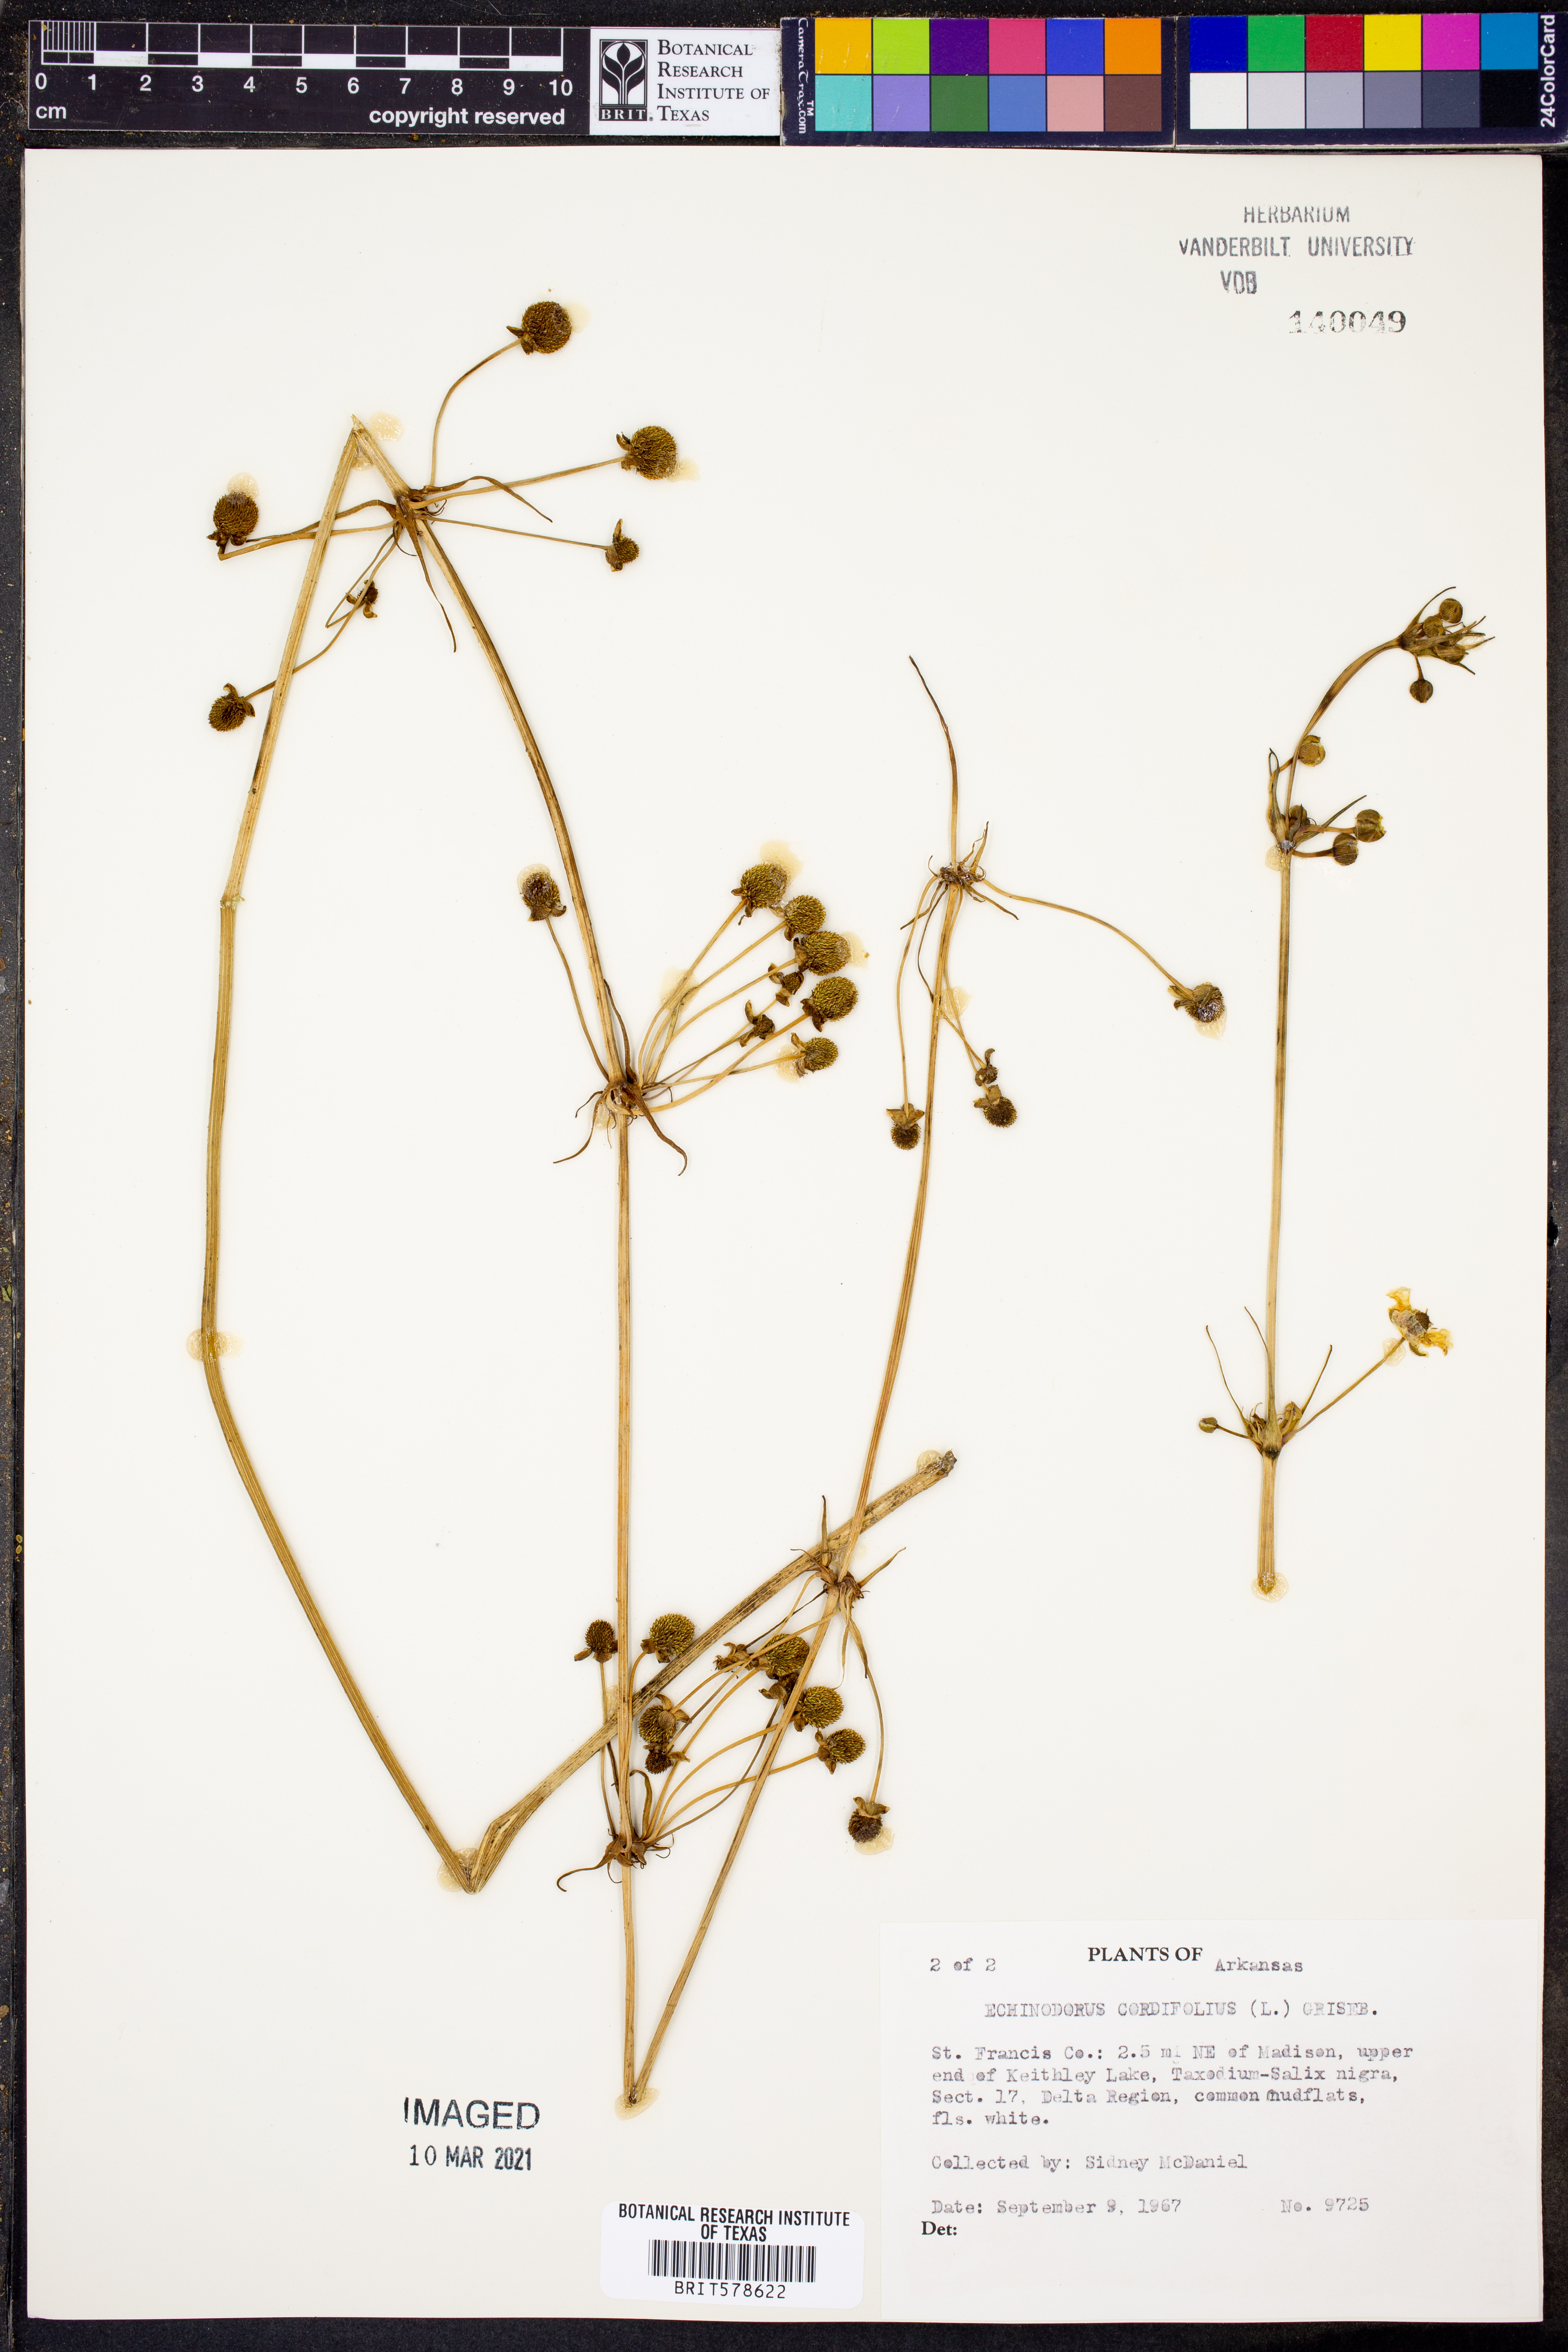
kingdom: Plantae
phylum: Tracheophyta
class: Liliopsida
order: Alismatales
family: Alismataceae
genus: Aquarius
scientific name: Aquarius cordifolius
